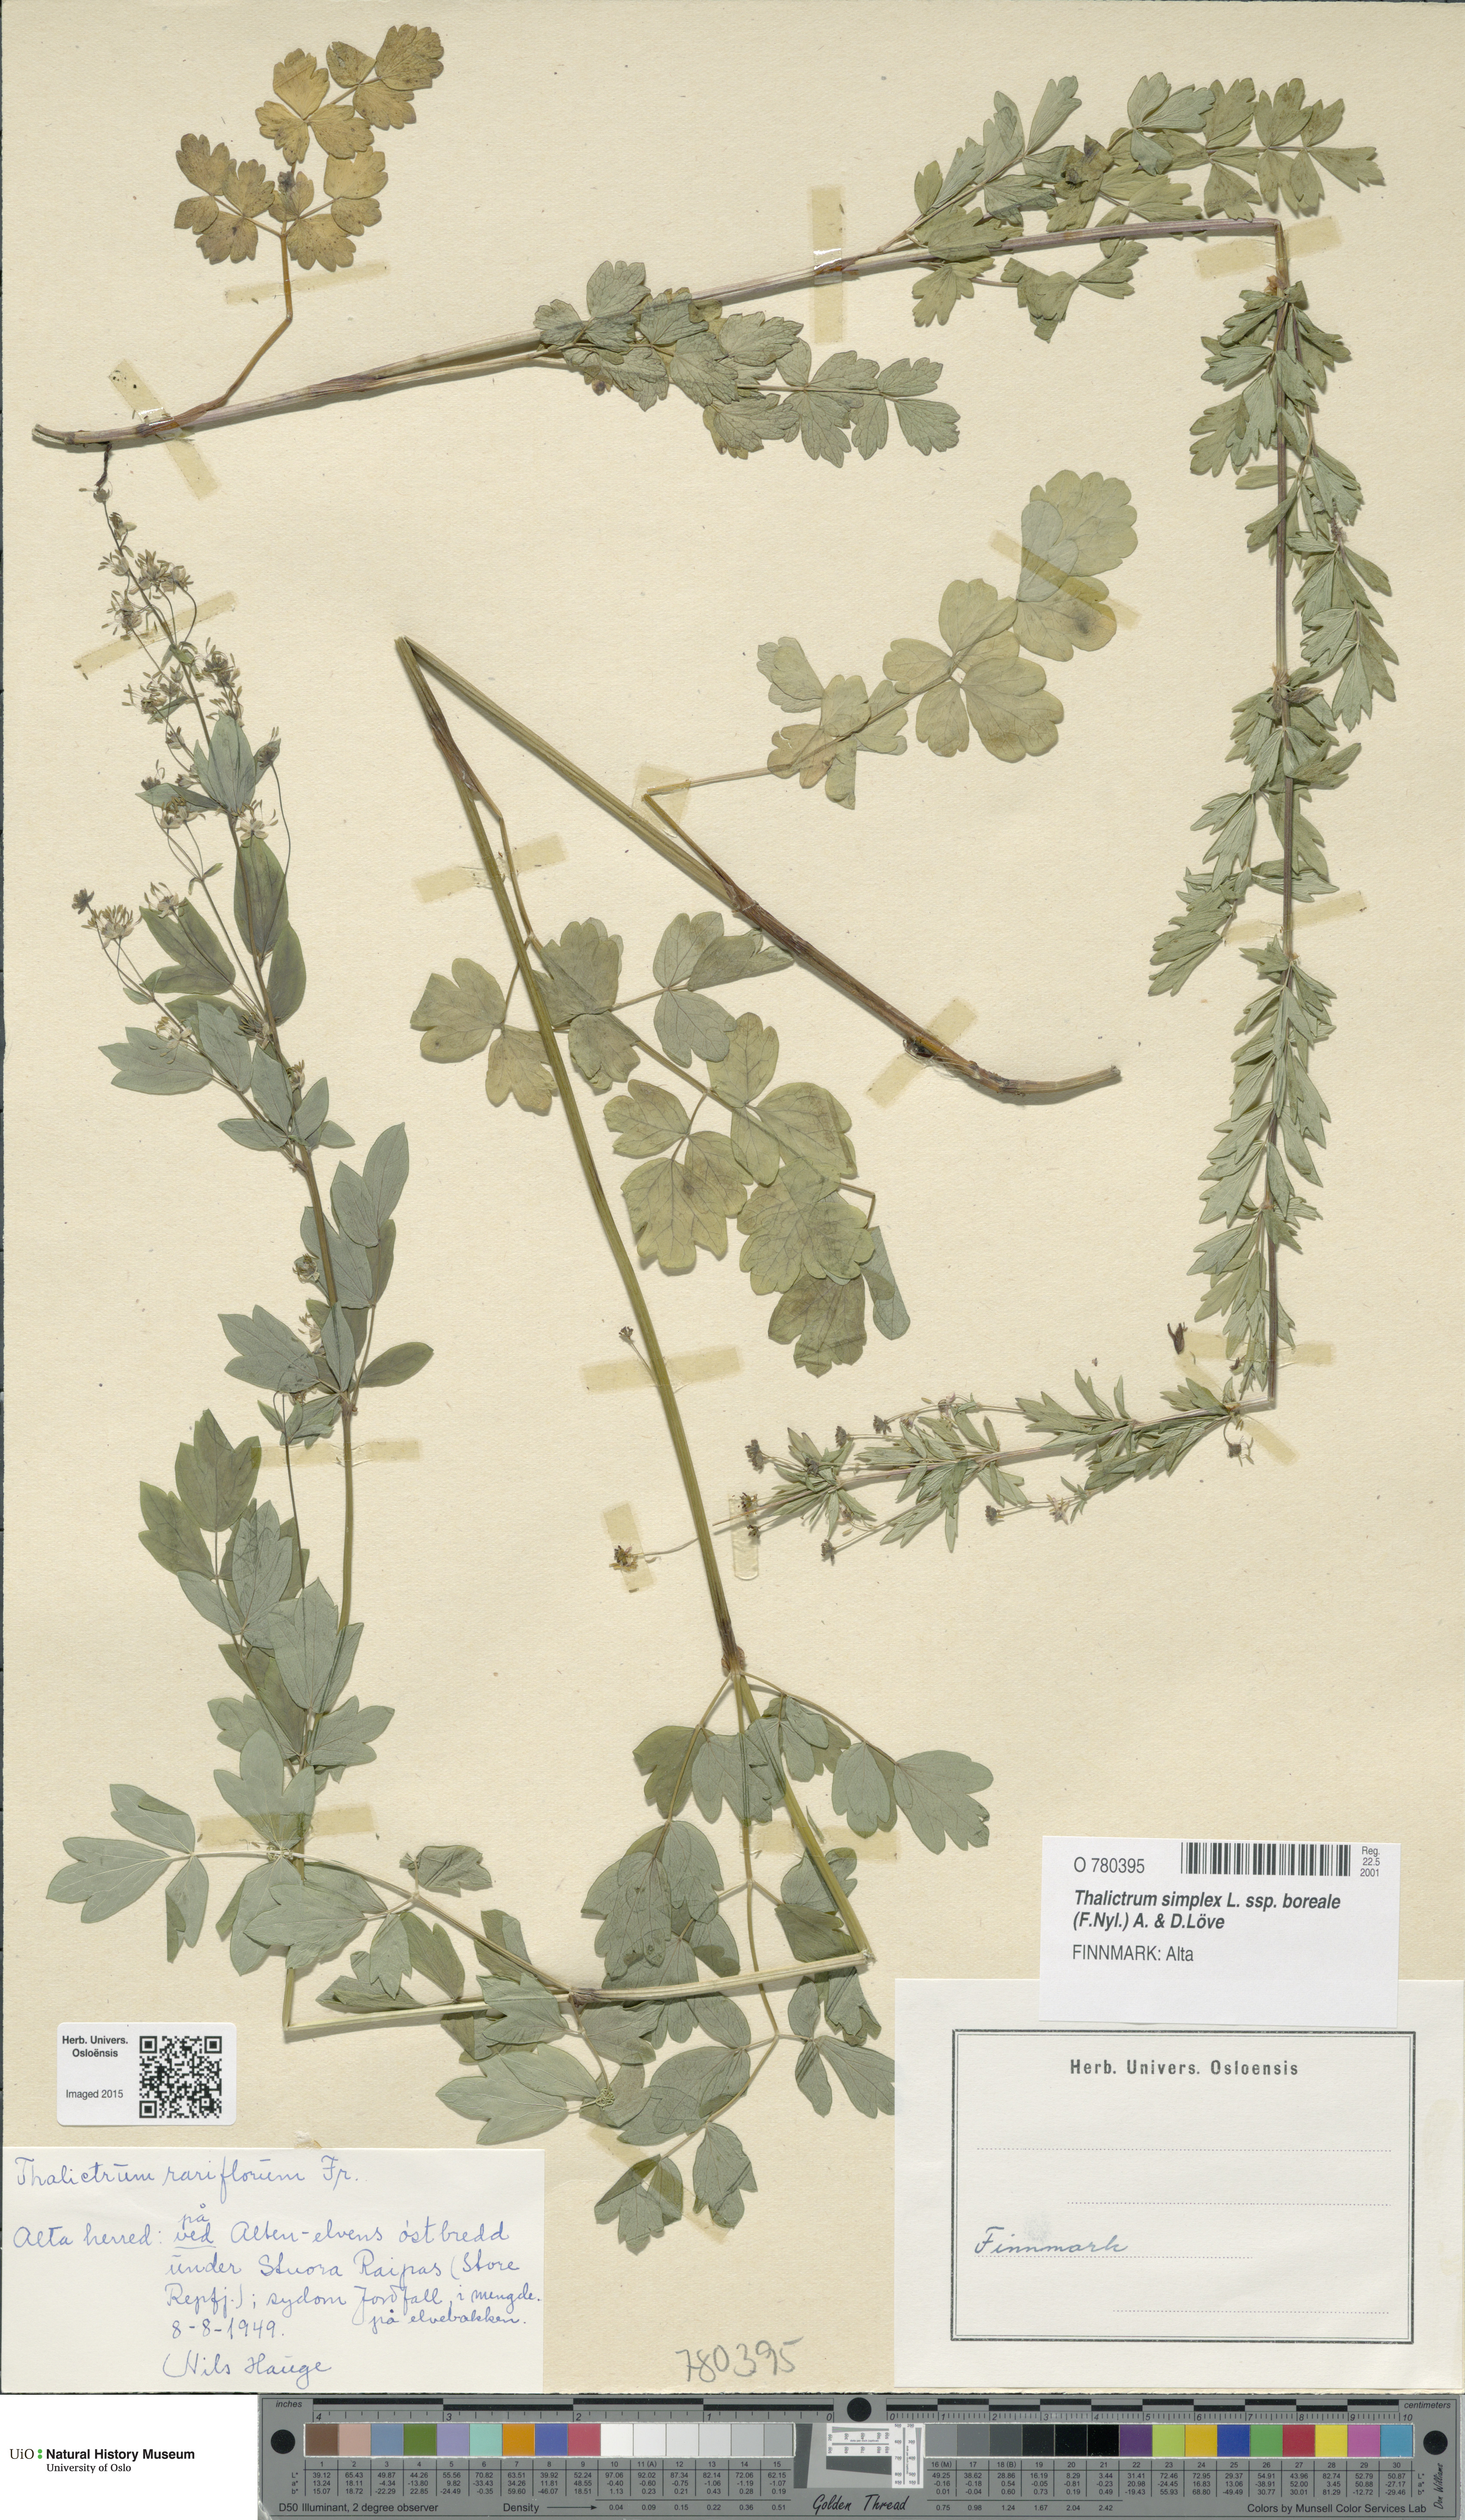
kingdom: Plantae
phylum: Tracheophyta
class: Magnoliopsida
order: Ranunculales
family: Ranunculaceae
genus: Thalictrum
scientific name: Thalictrum simplex
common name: Small meadow-rue
